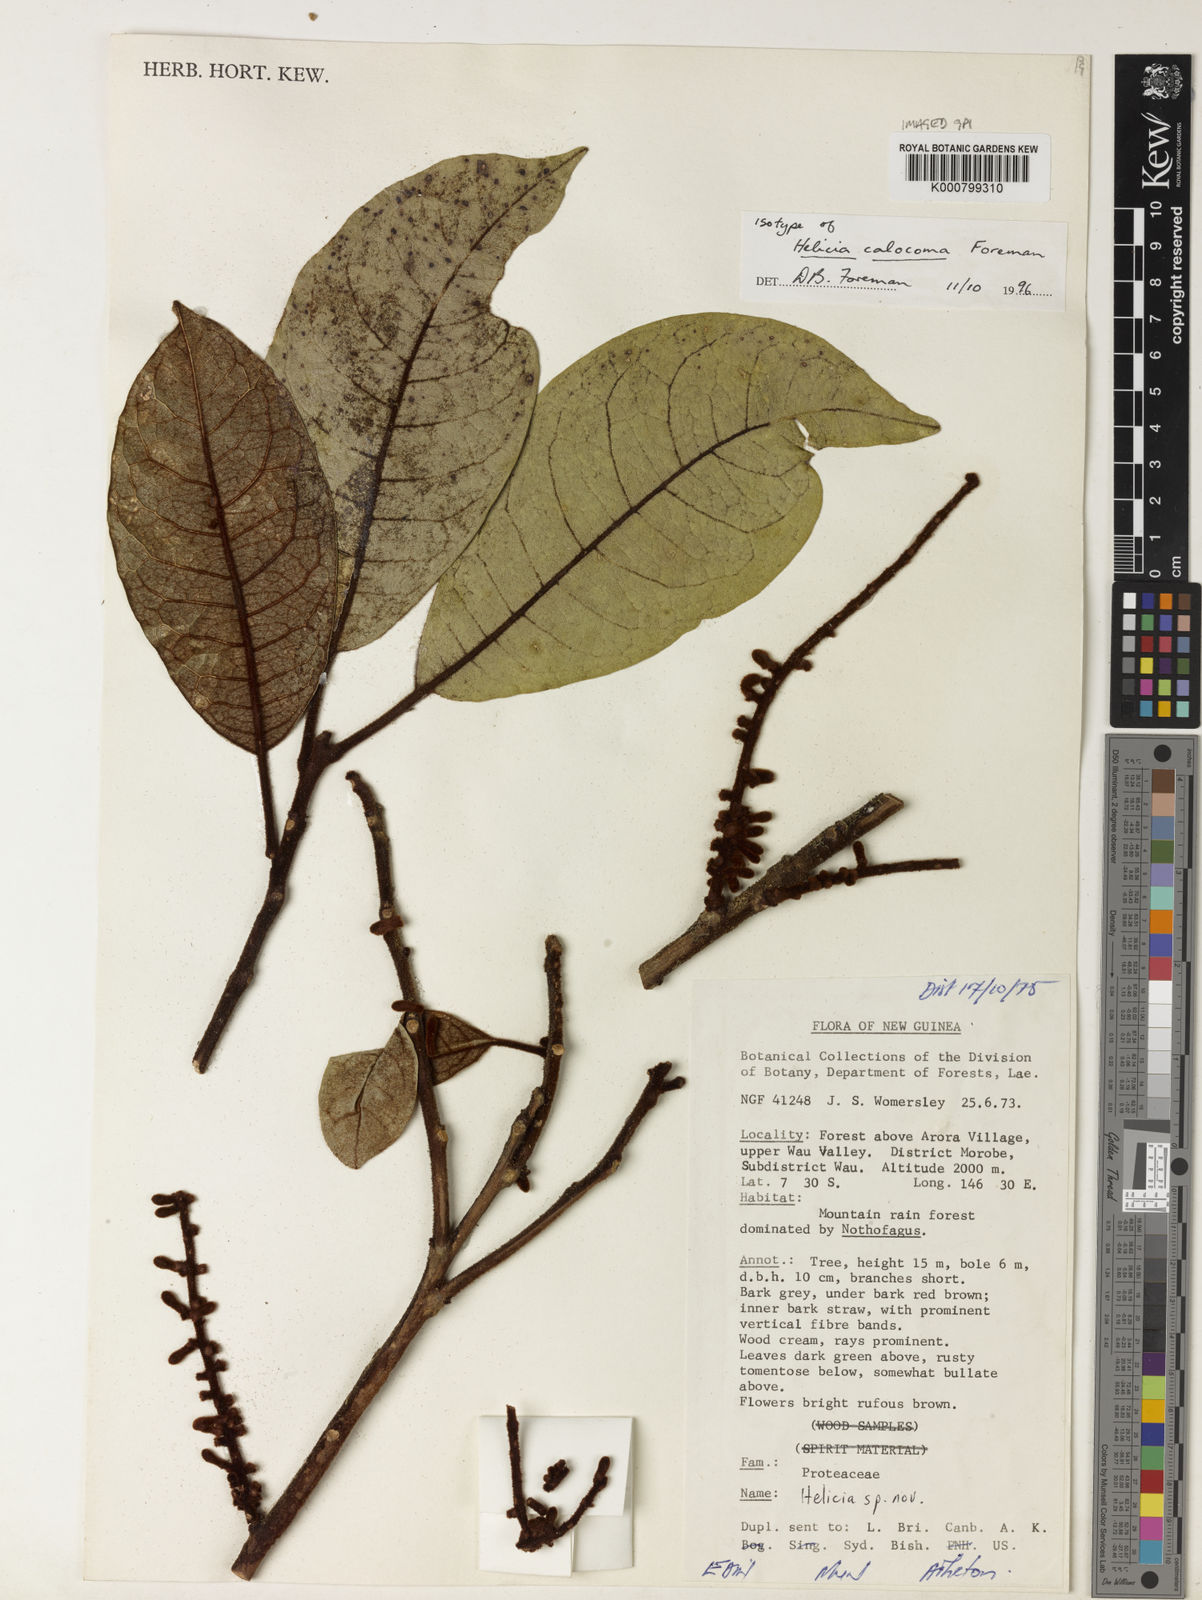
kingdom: Plantae
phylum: Tracheophyta
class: Magnoliopsida
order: Proteales
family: Proteaceae
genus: Helicia
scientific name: Helicia calocoma
